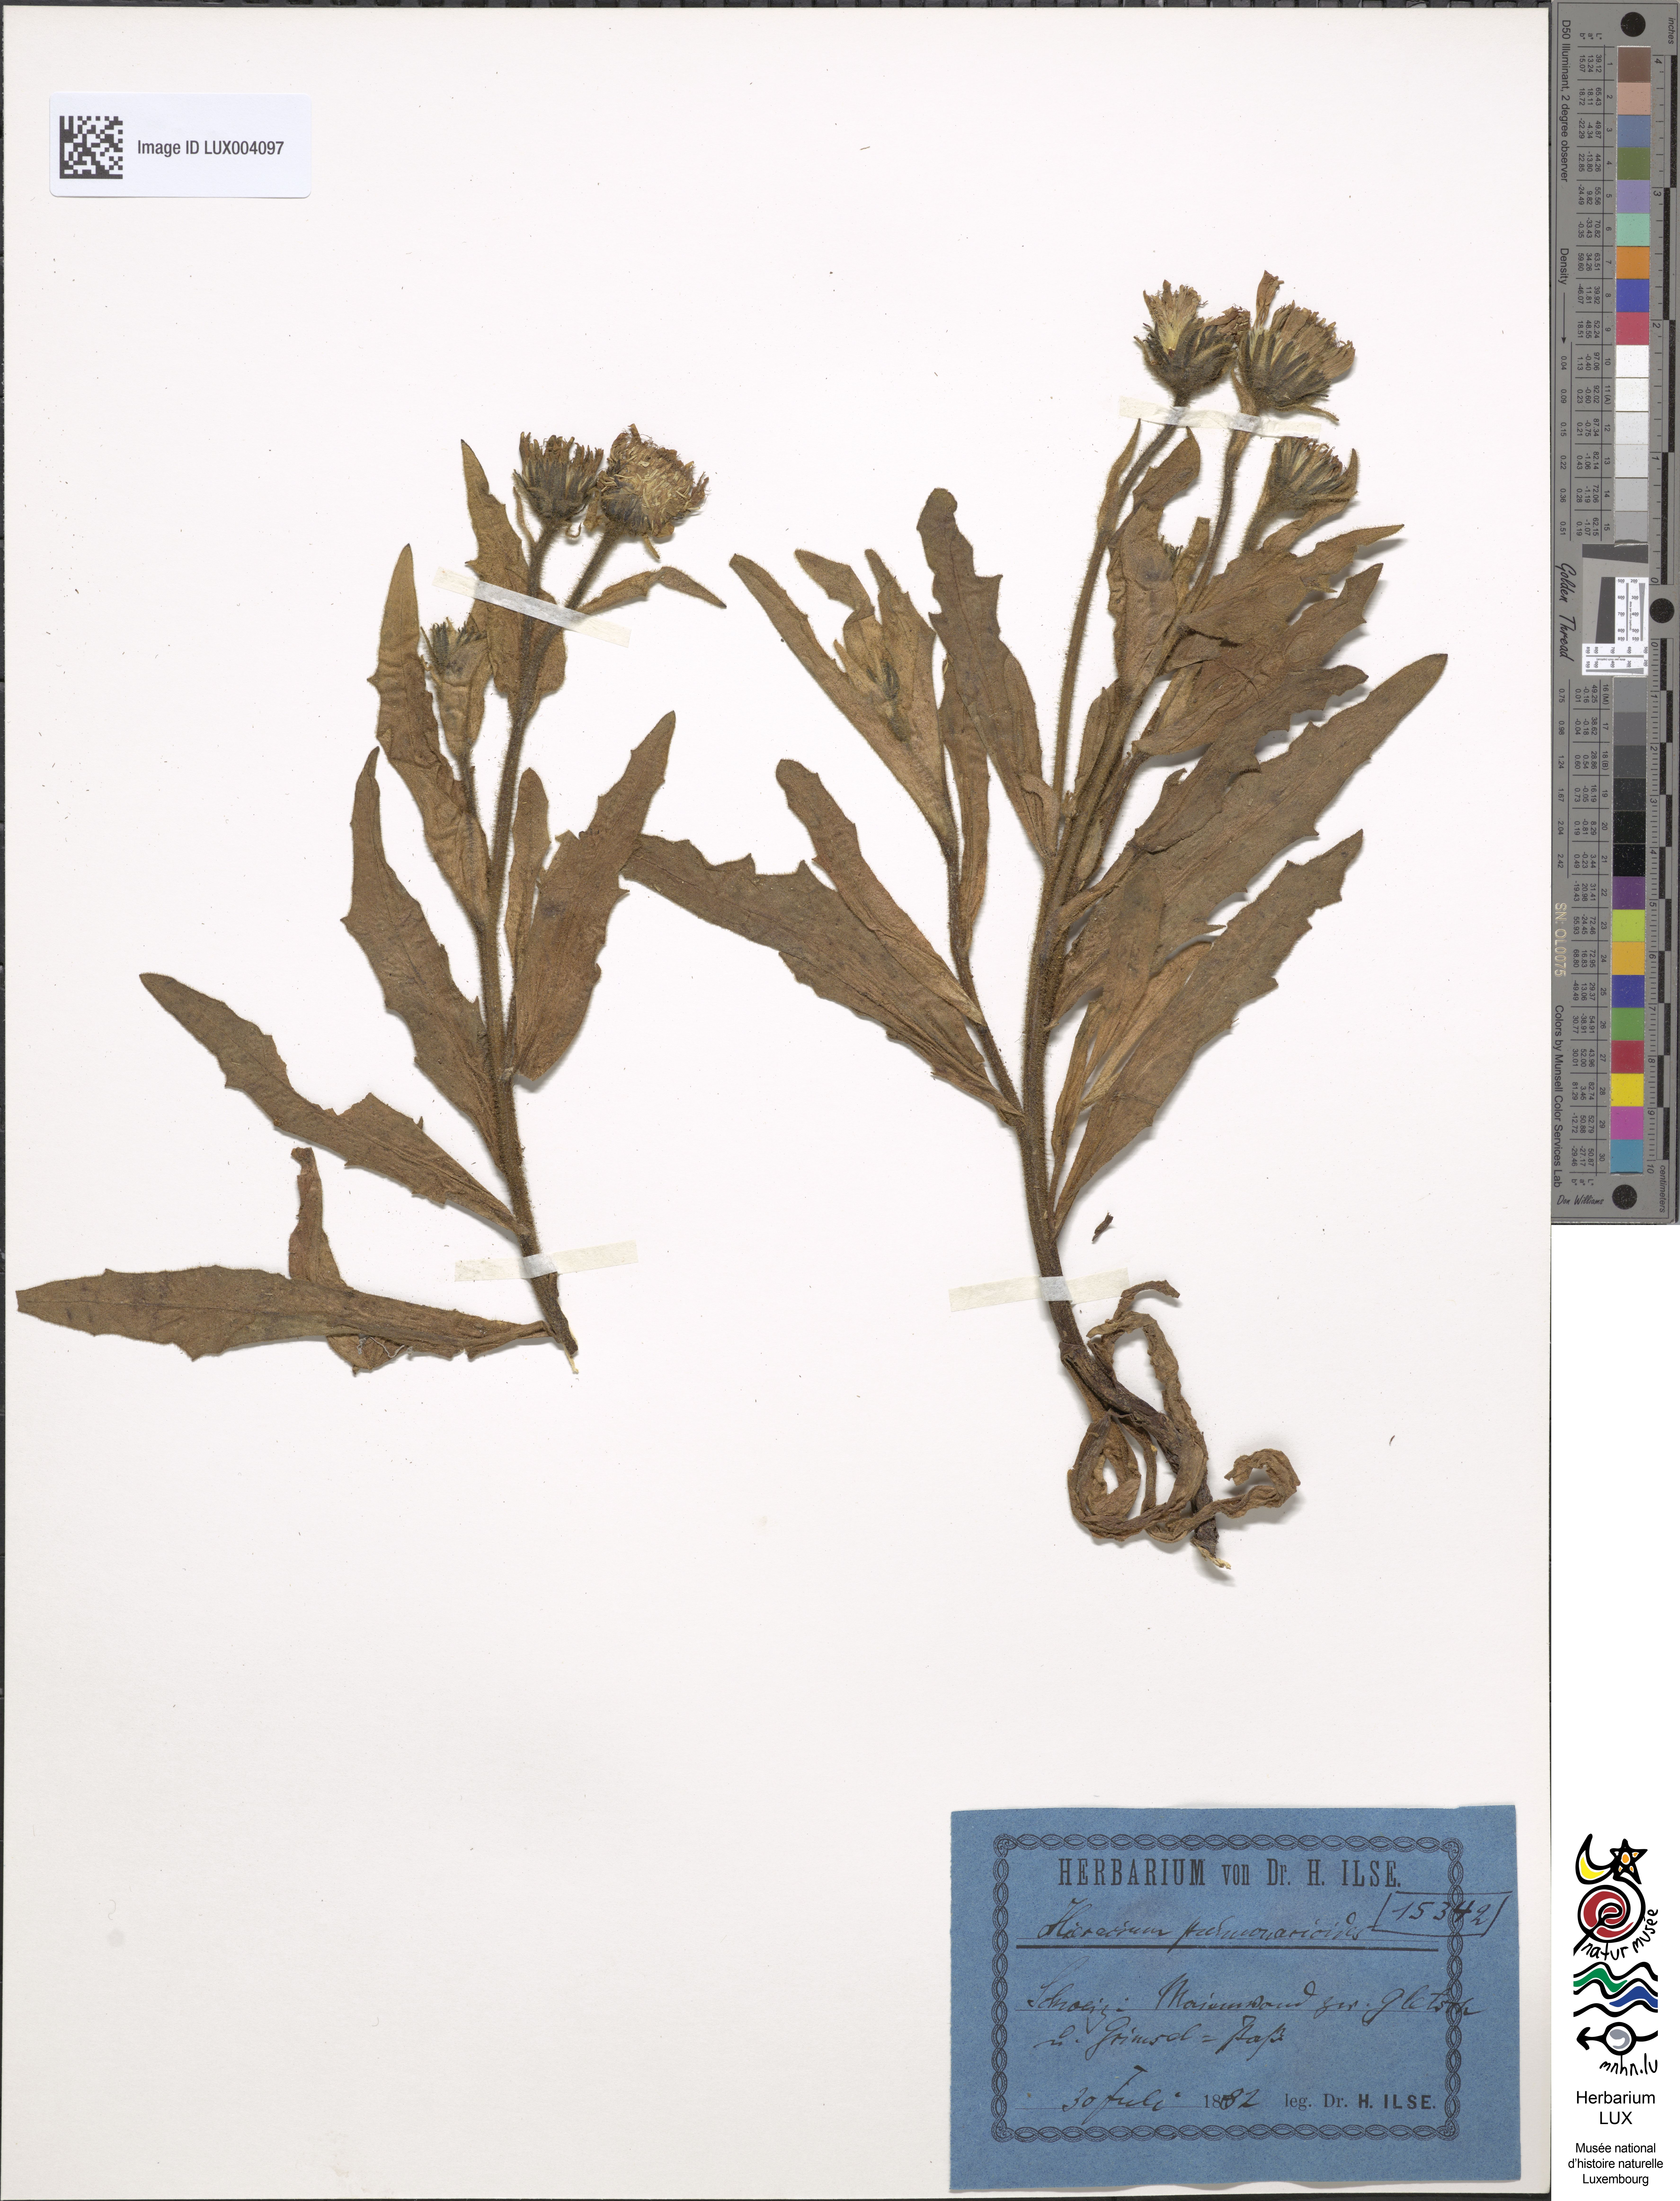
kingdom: Plantae
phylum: Tracheophyta
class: Magnoliopsida
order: Asterales
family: Asteraceae
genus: Hieracium
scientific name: Hieracium pulmonarioides
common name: Wall hawkweed
